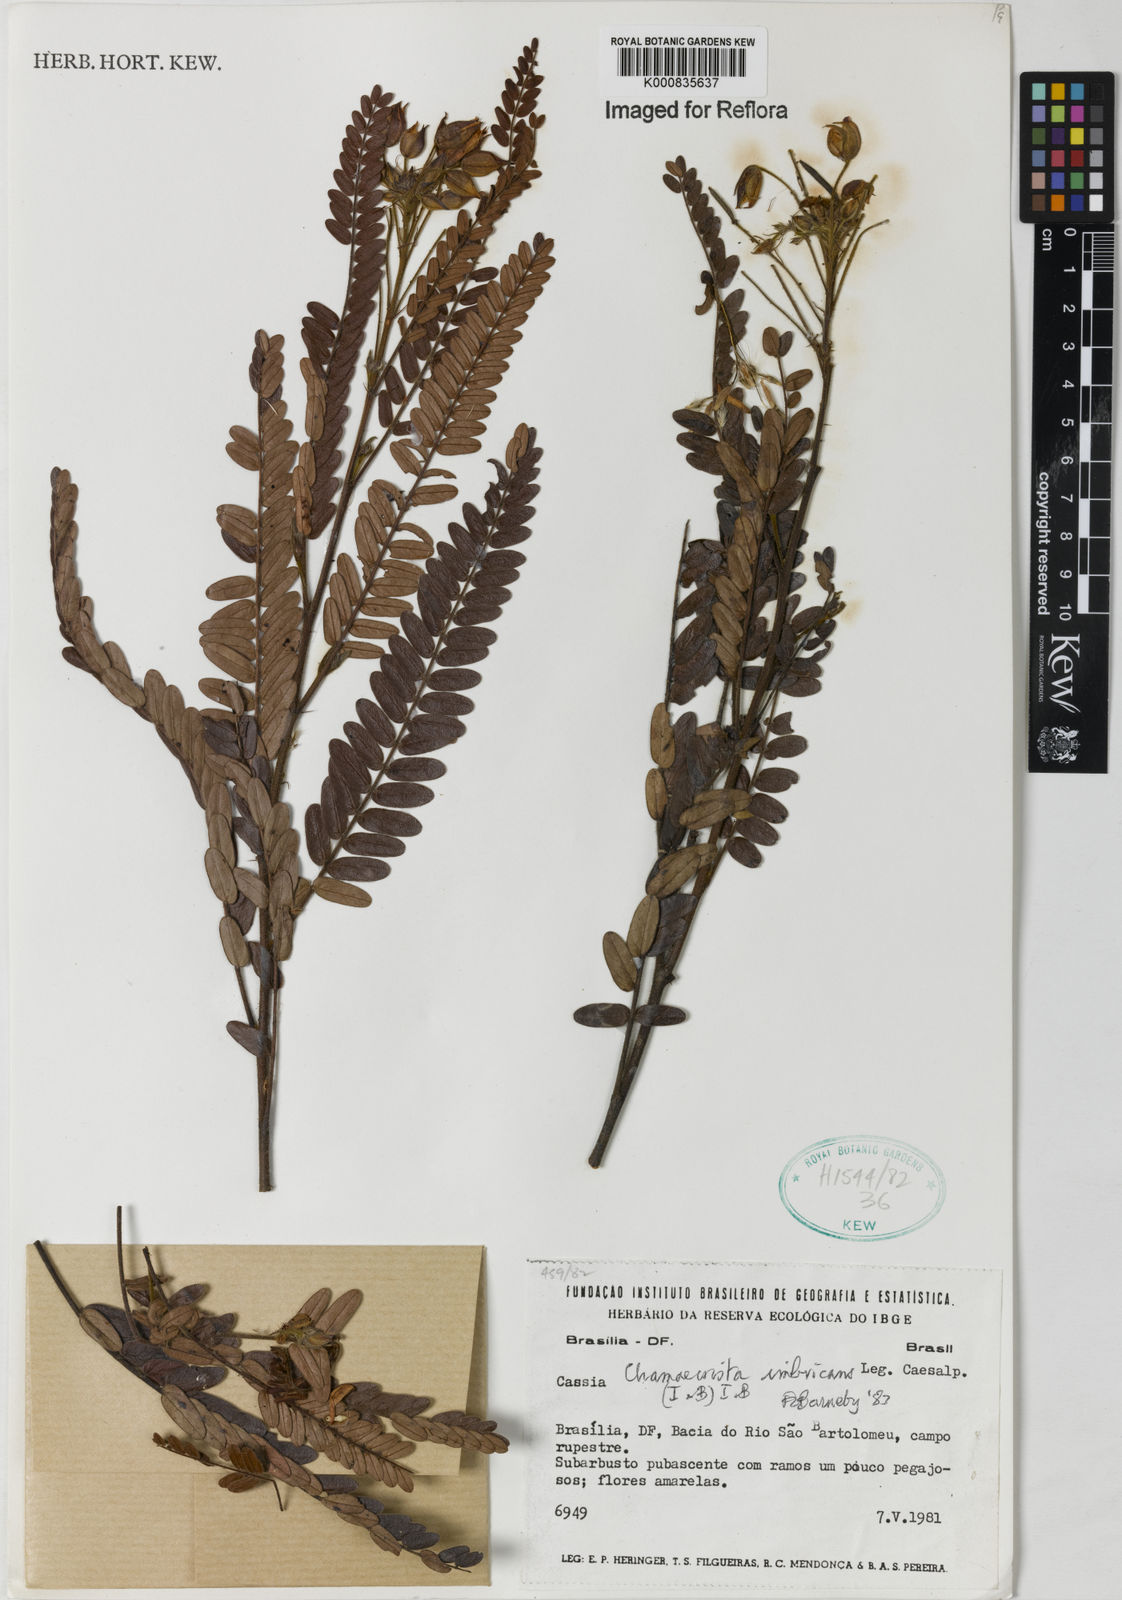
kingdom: Plantae
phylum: Tracheophyta
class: Magnoliopsida
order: Fabales
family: Fabaceae
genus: Chamaecrista
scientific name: Chamaecrista imbricans
